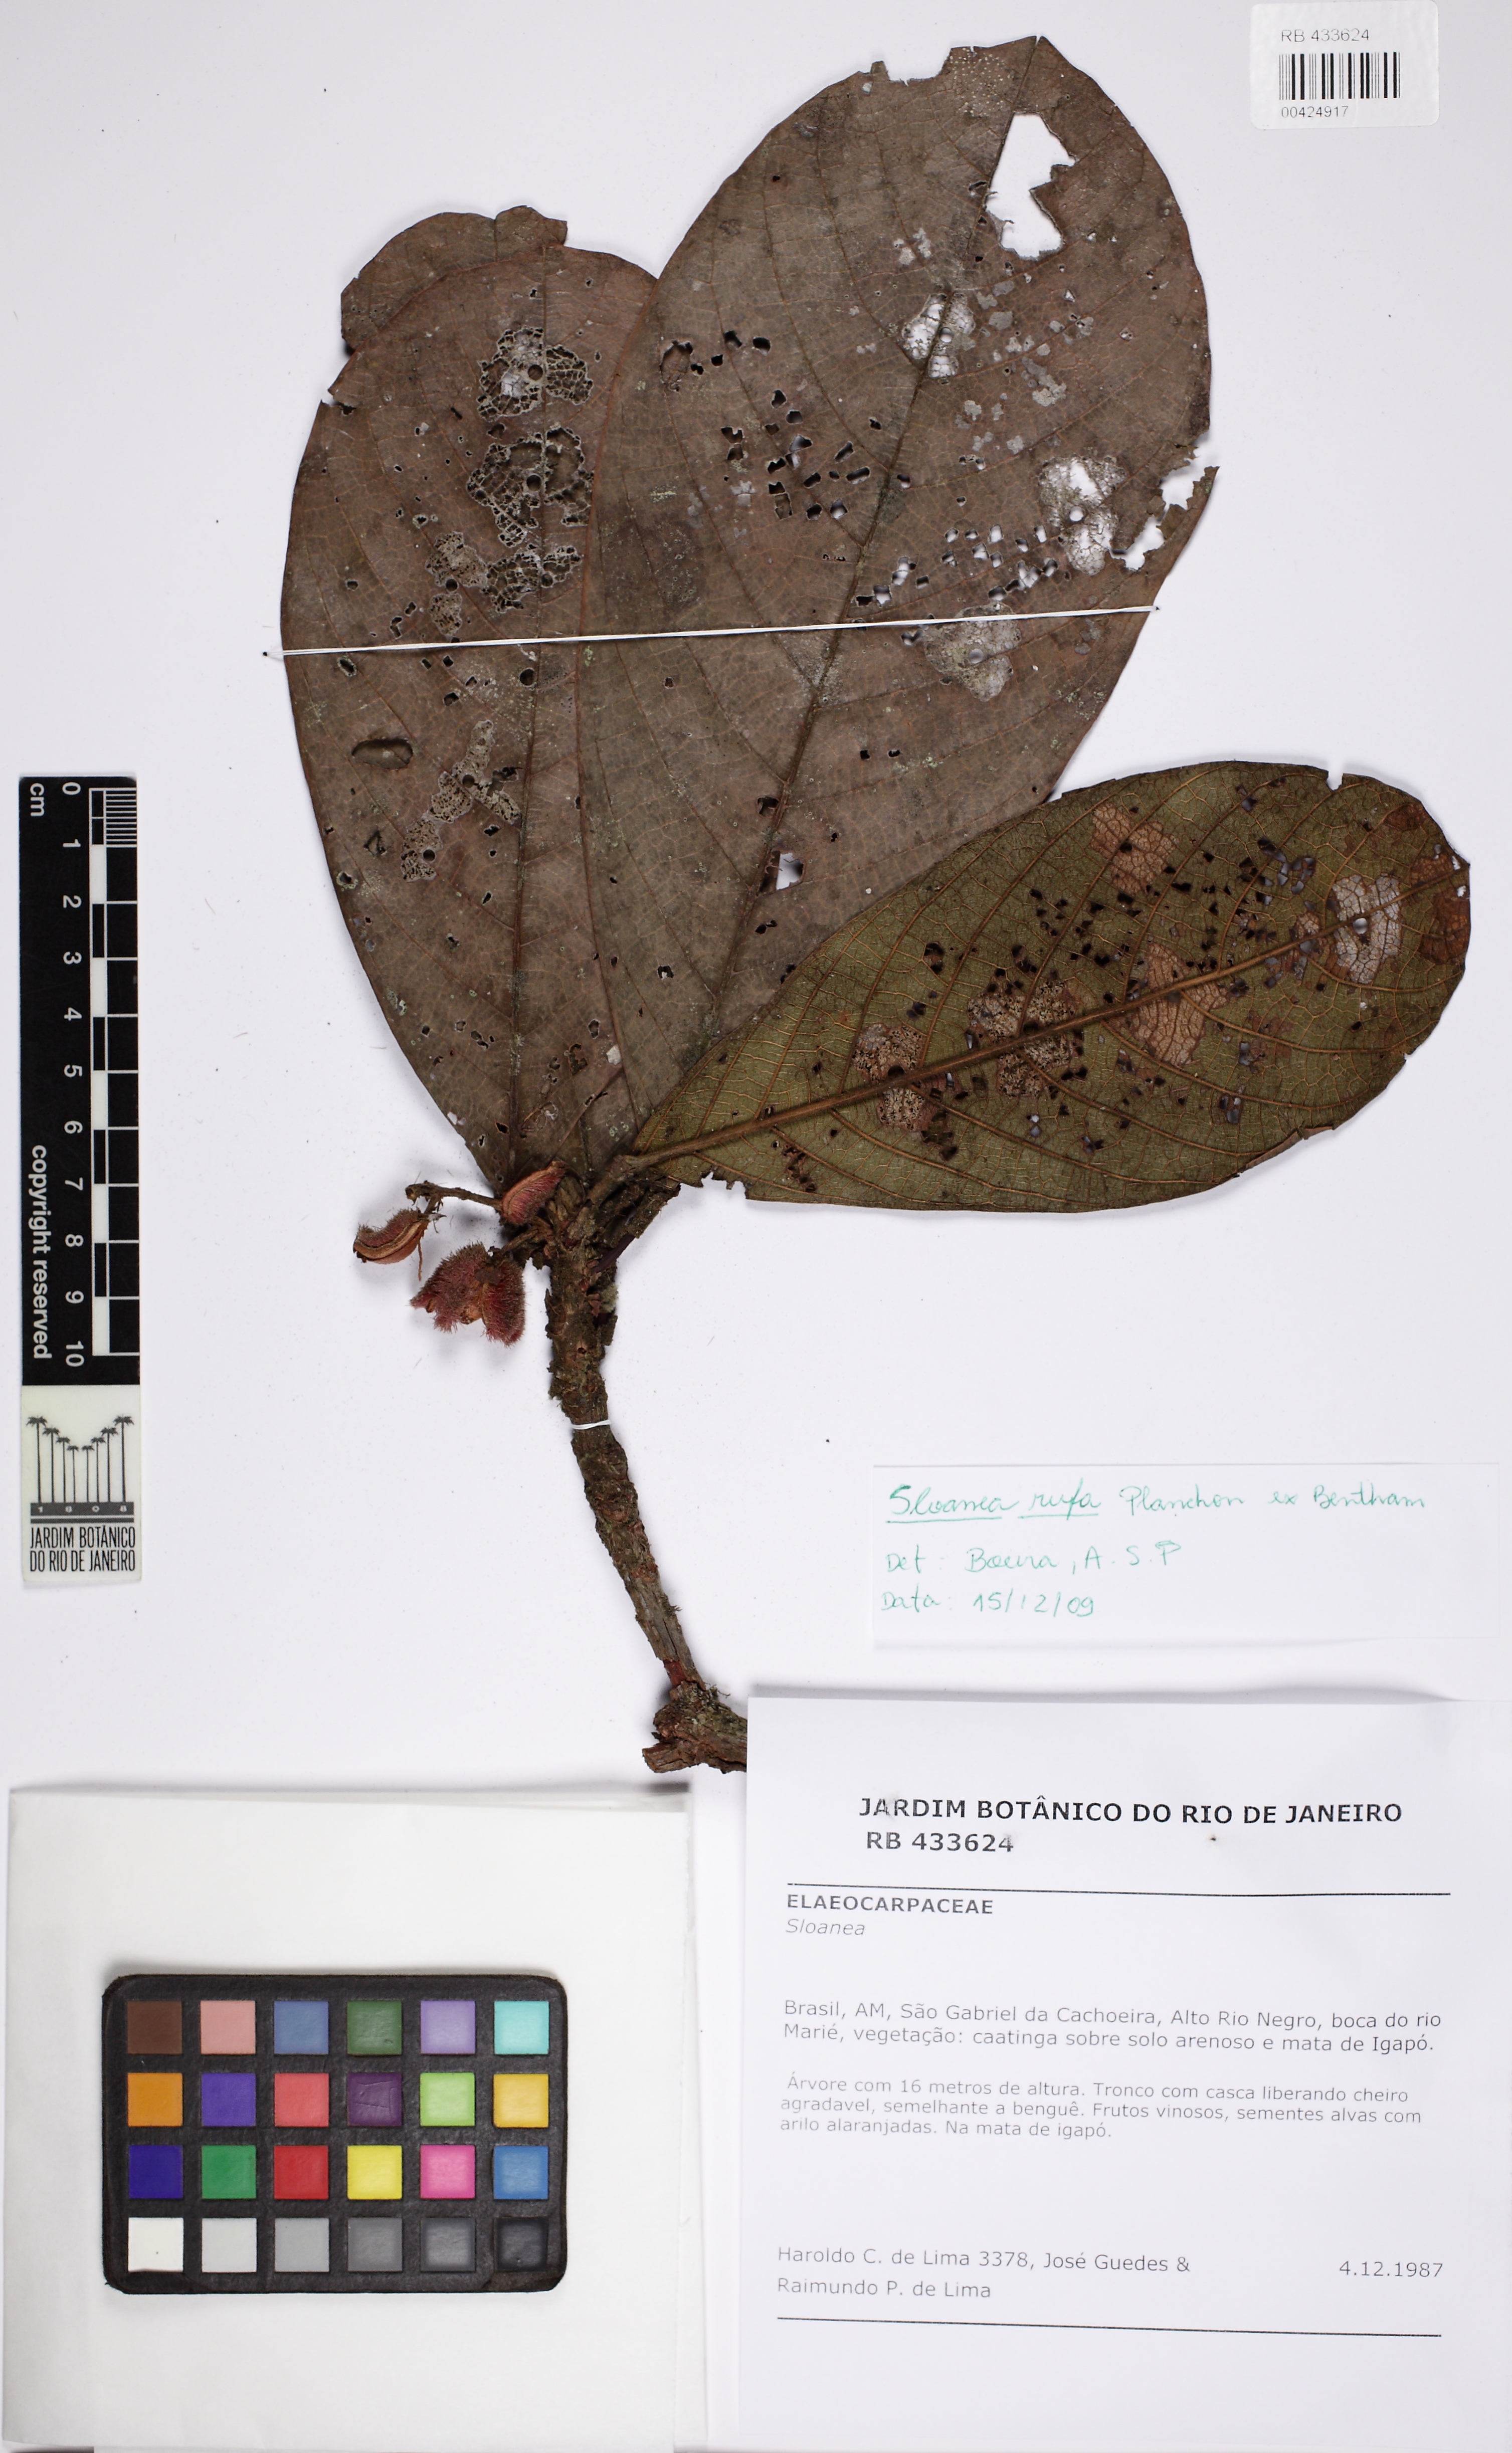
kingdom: Plantae
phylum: Tracheophyta
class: Magnoliopsida
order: Oxalidales
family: Elaeocarpaceae
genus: Sloanea
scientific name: Sloanea rufa
